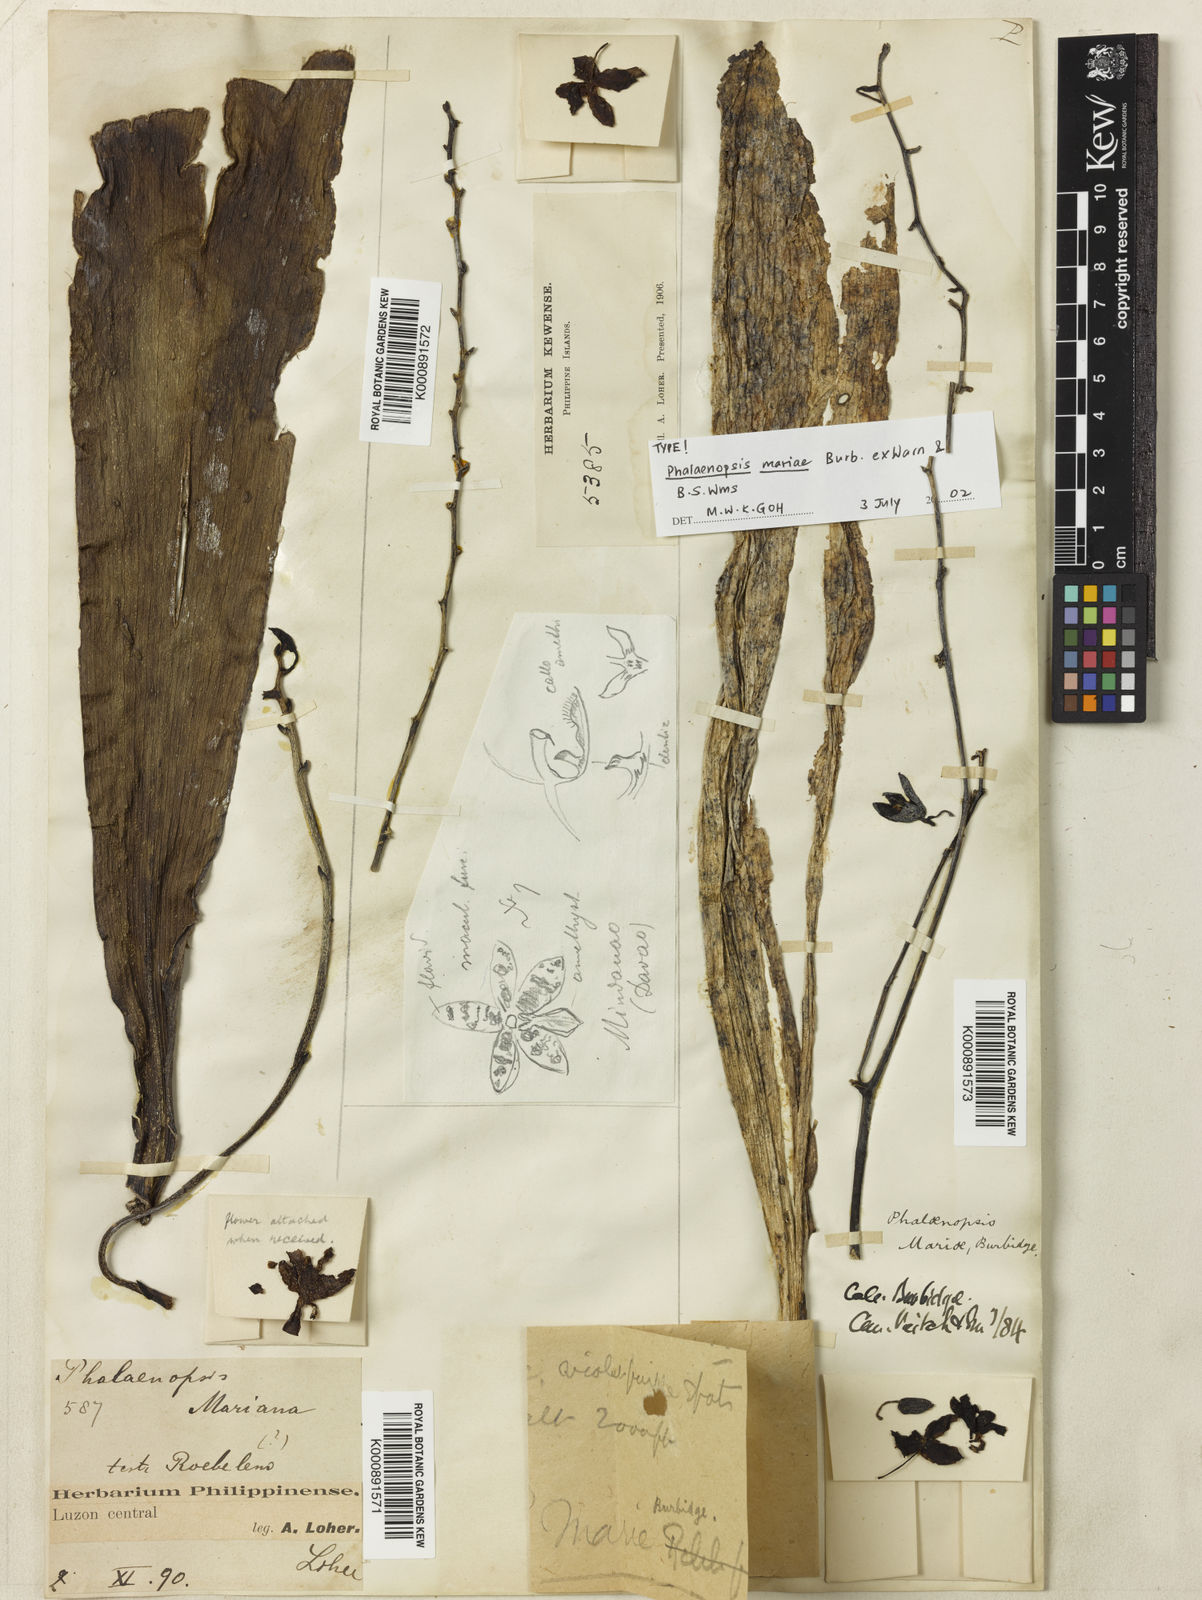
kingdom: Plantae
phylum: Tracheophyta
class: Liliopsida
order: Asparagales
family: Orchidaceae
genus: Phalaenopsis
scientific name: Phalaenopsis mariae
